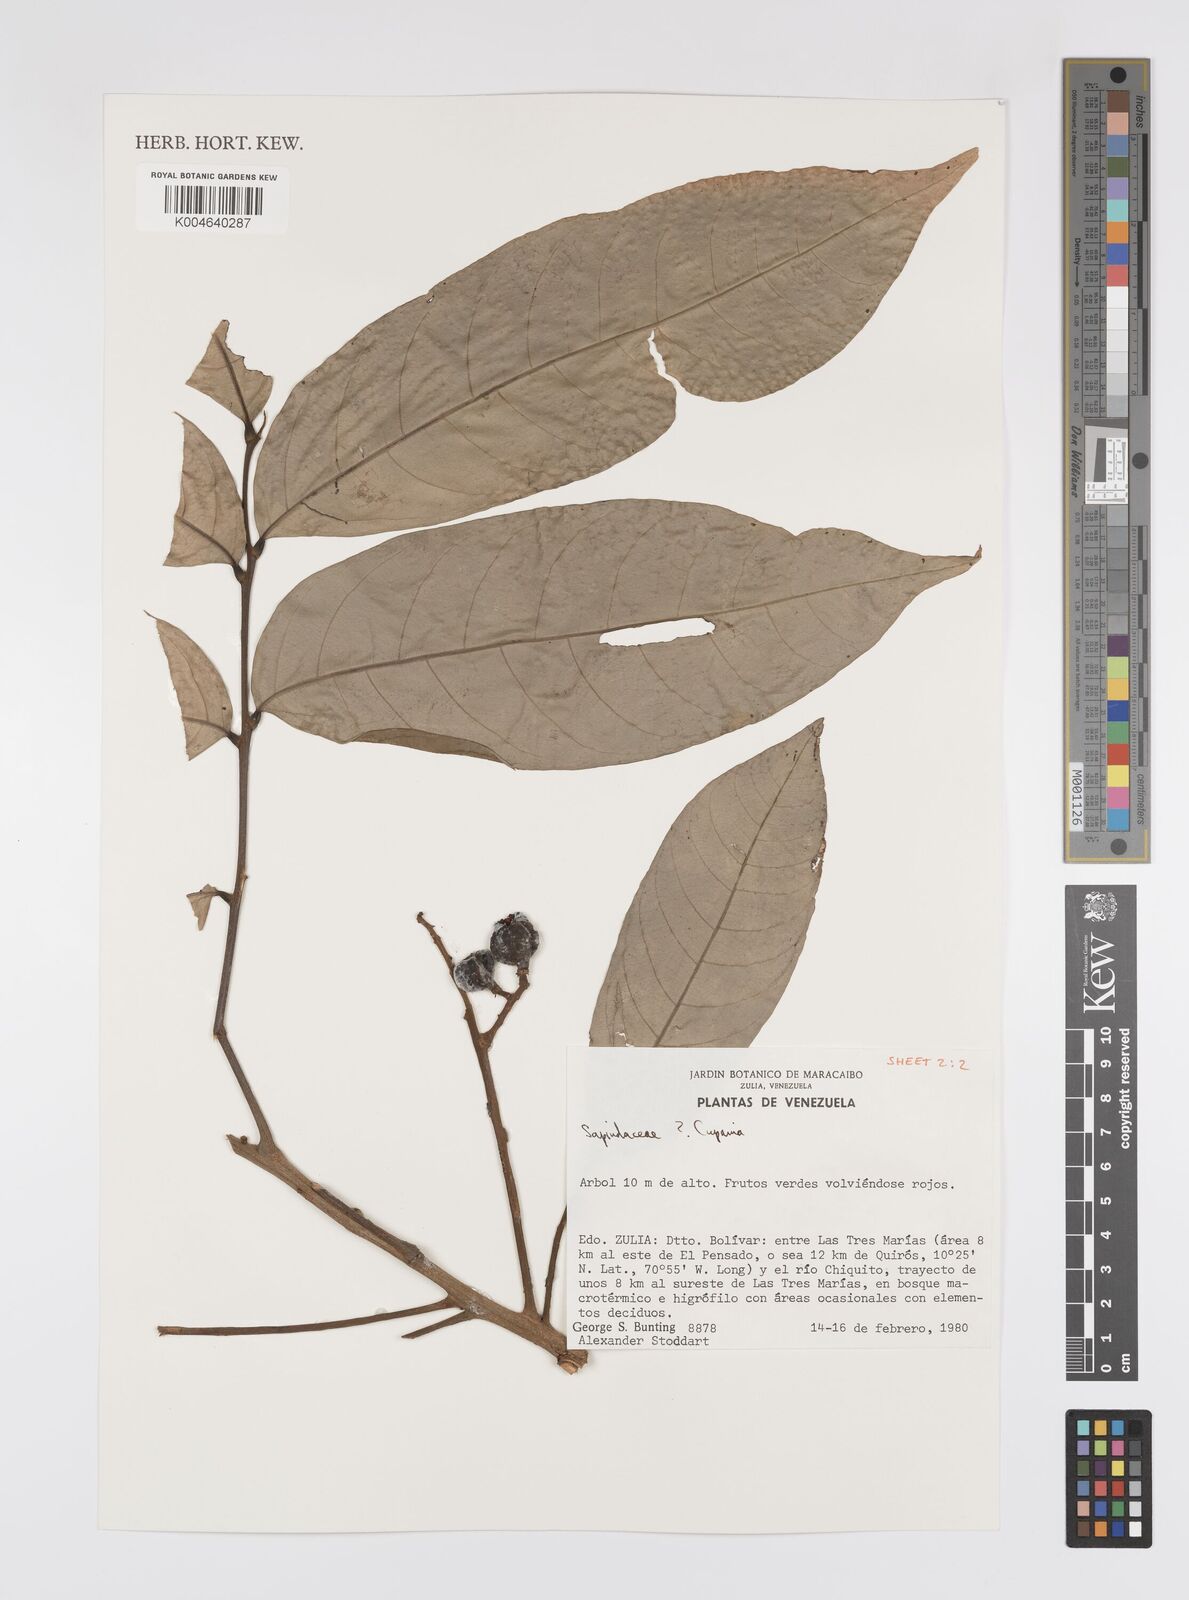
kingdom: Plantae
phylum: Tracheophyta
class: Magnoliopsida
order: Sapindales
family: Sapindaceae
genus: Cupania
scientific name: Cupania
